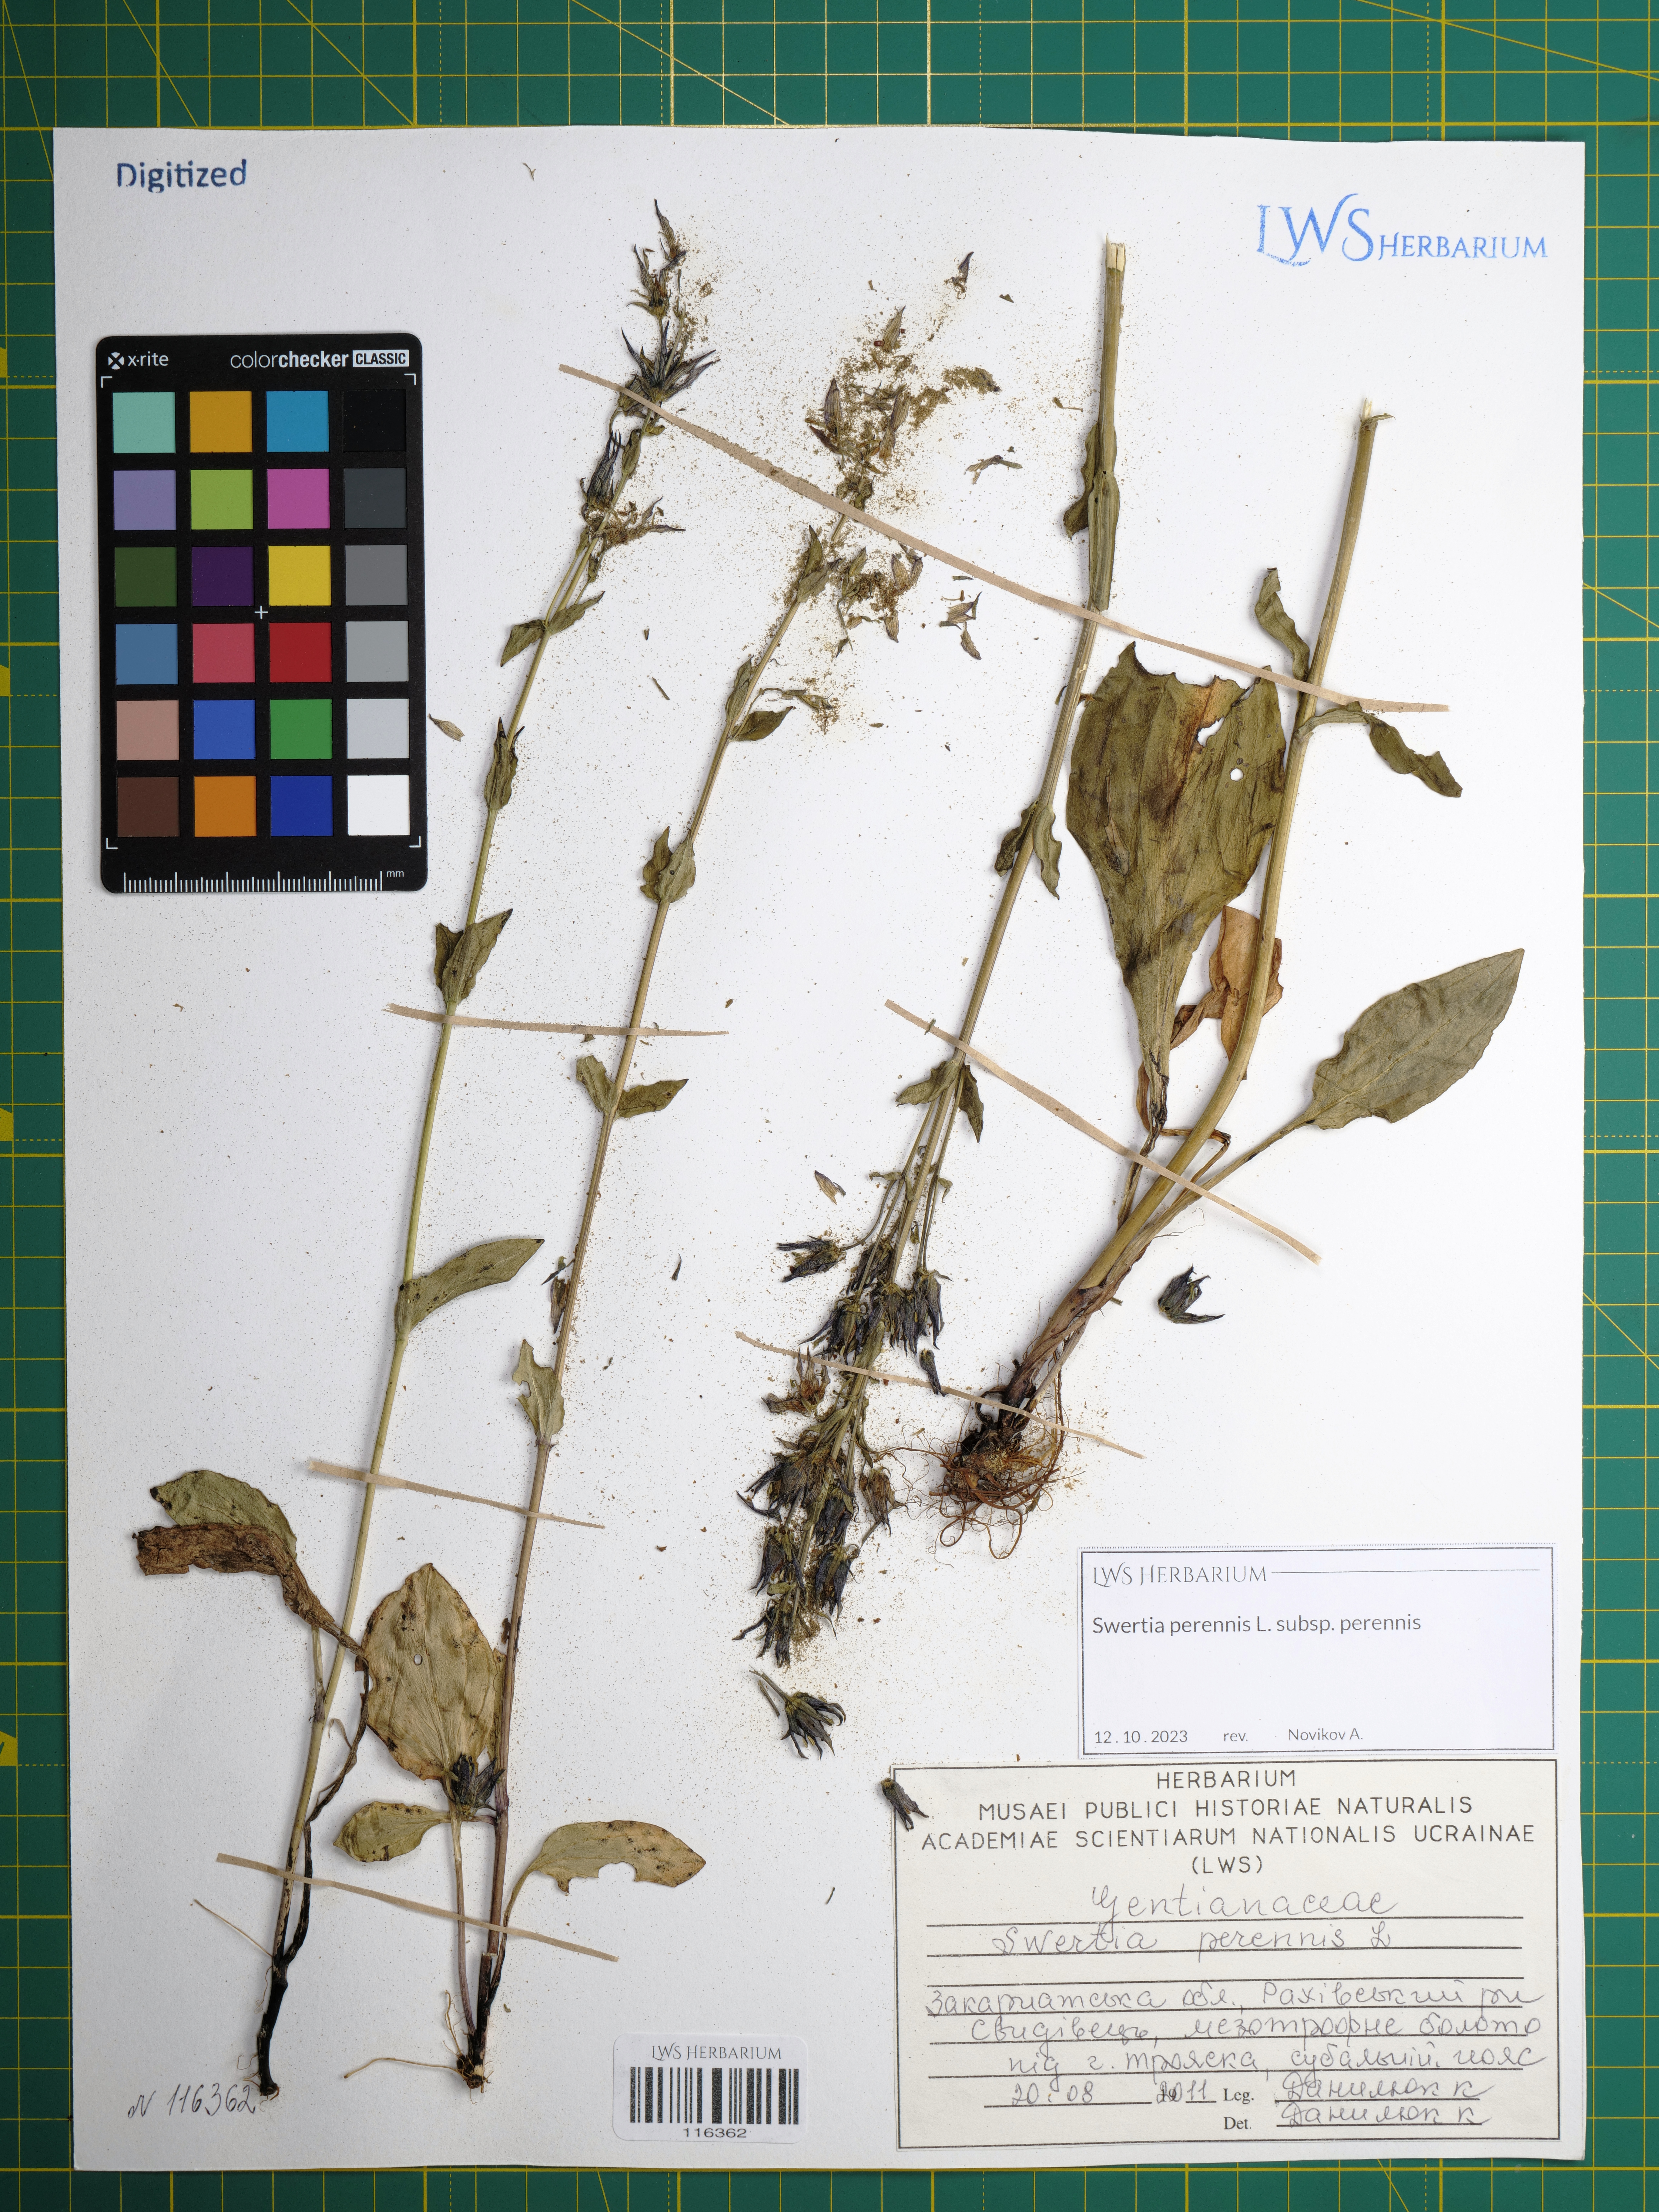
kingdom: Plantae
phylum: Tracheophyta
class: Magnoliopsida
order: Gentianales
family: Gentianaceae
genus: Swertia
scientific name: Swertia perennis
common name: Alpine bog swertia
